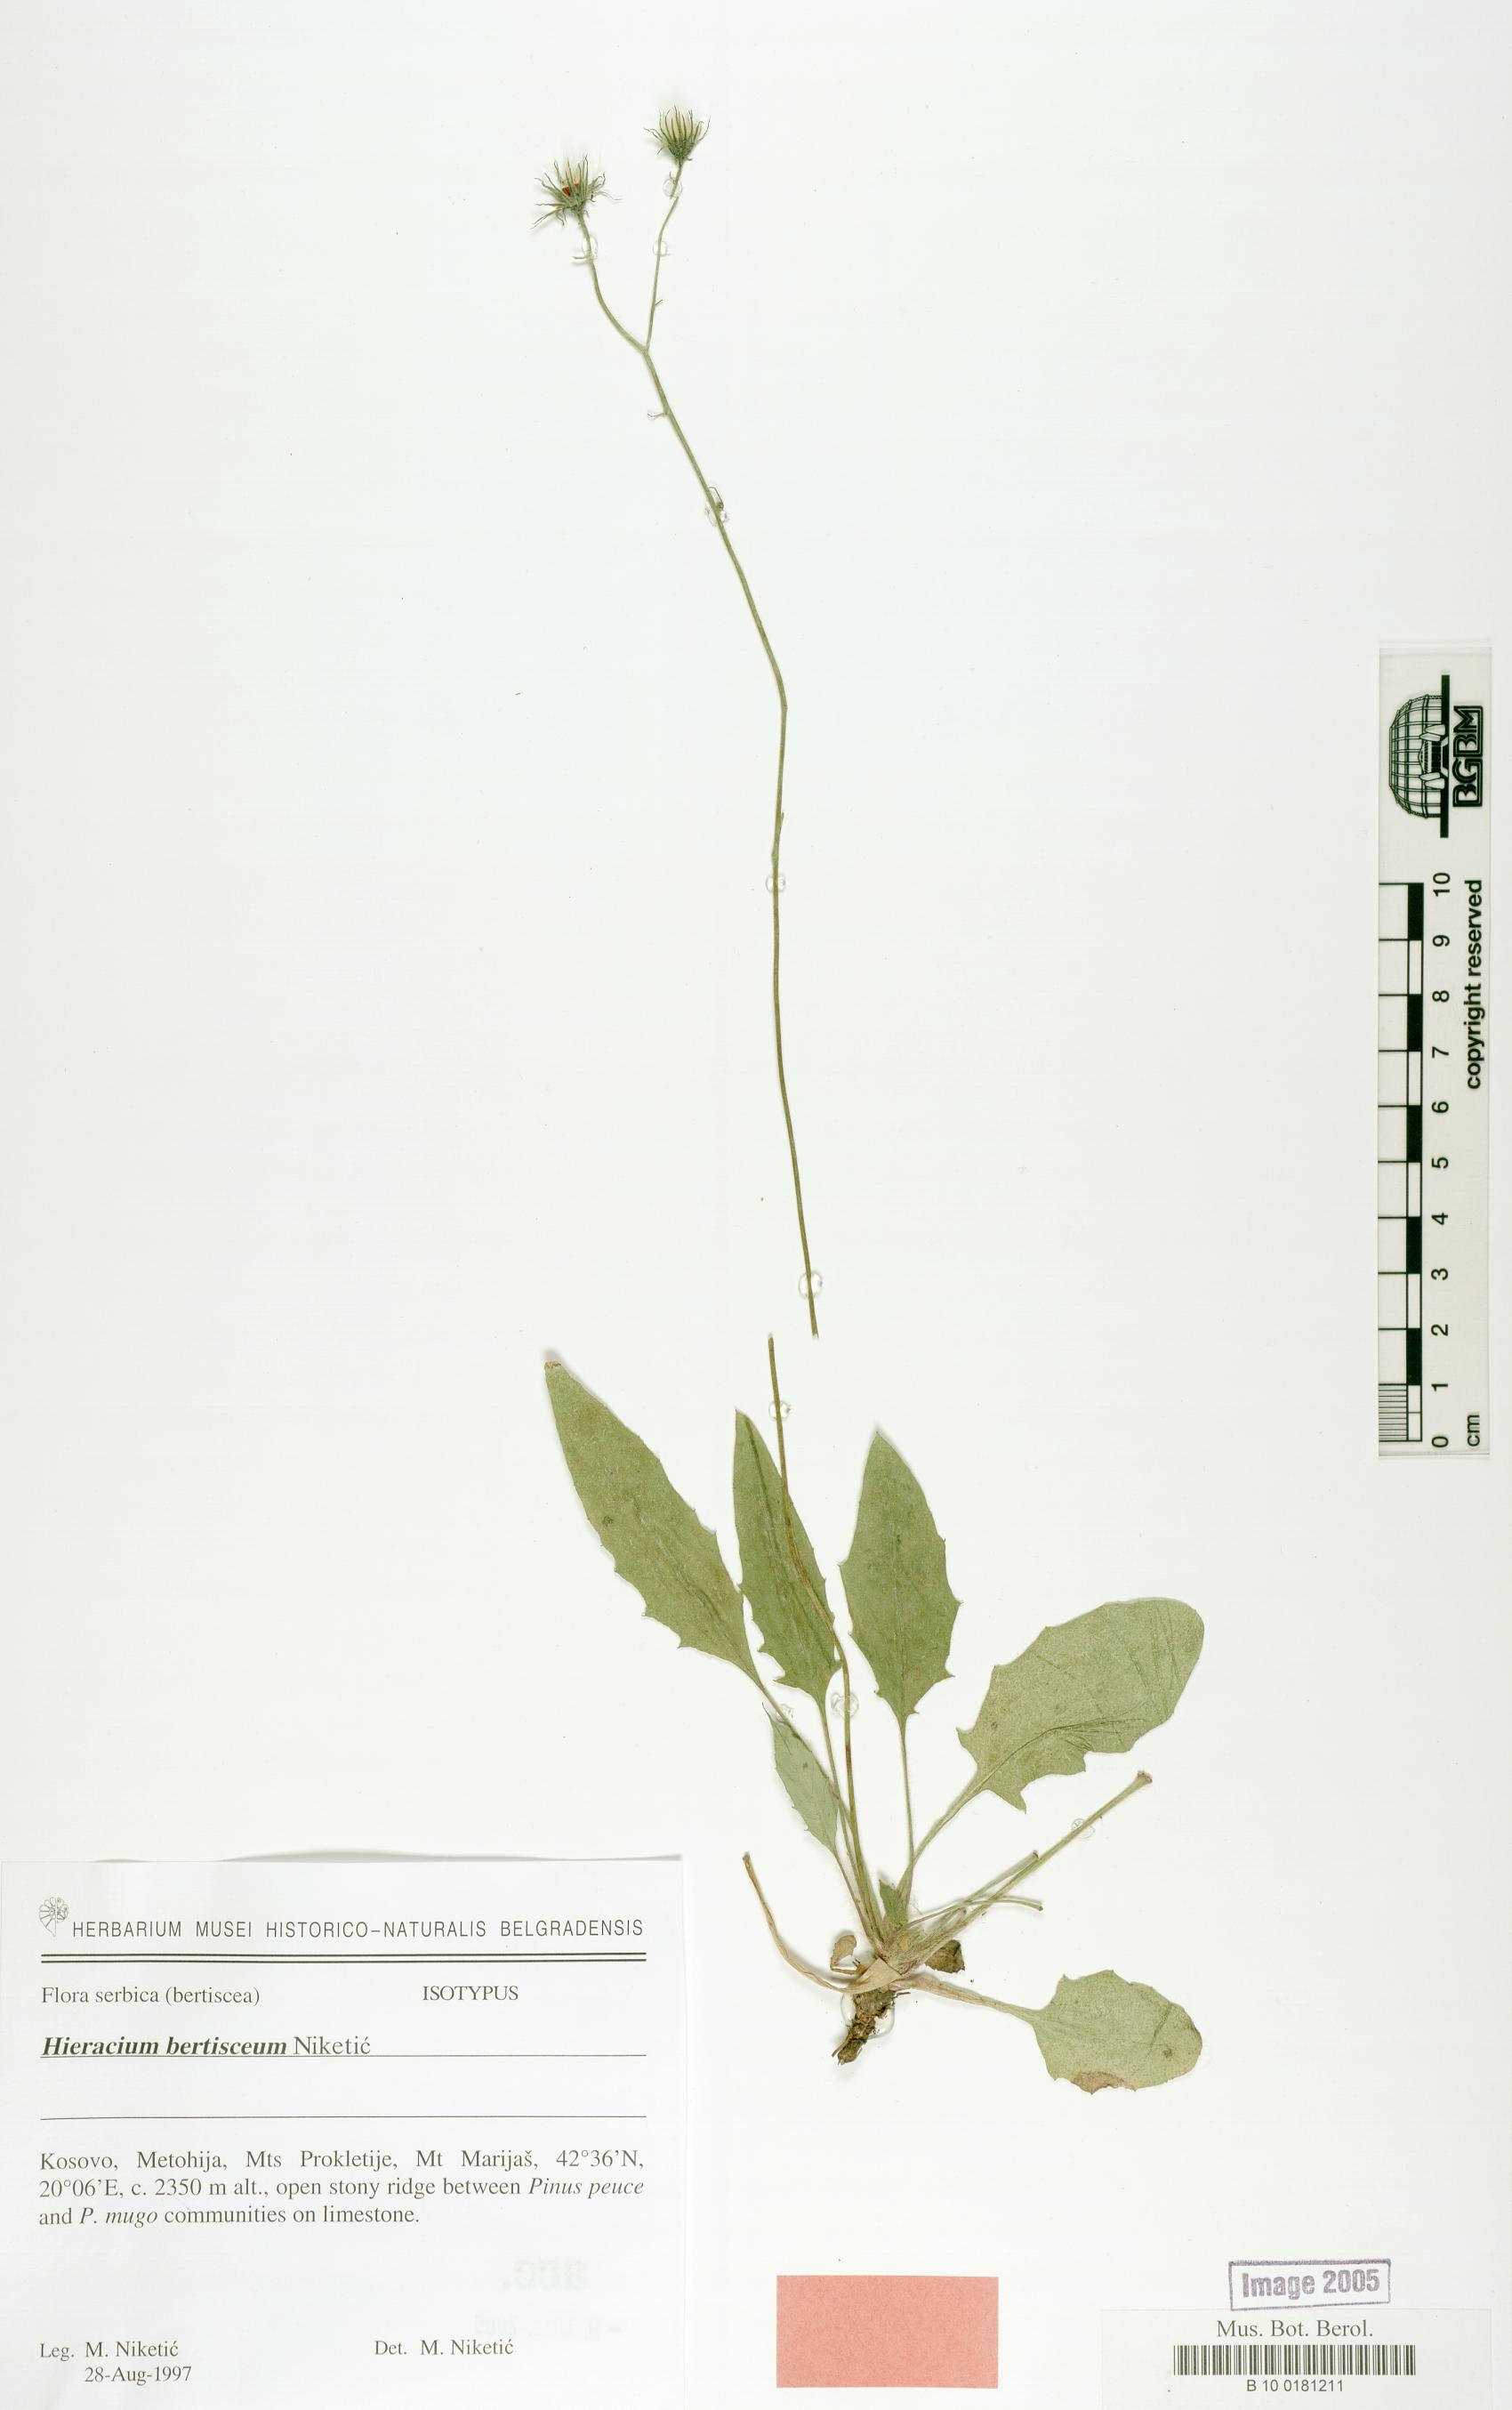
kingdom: Plantae
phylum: Tracheophyta
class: Magnoliopsida
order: Asterales
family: Asteraceae
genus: Hieracium
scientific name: Hieracium bertisceum
